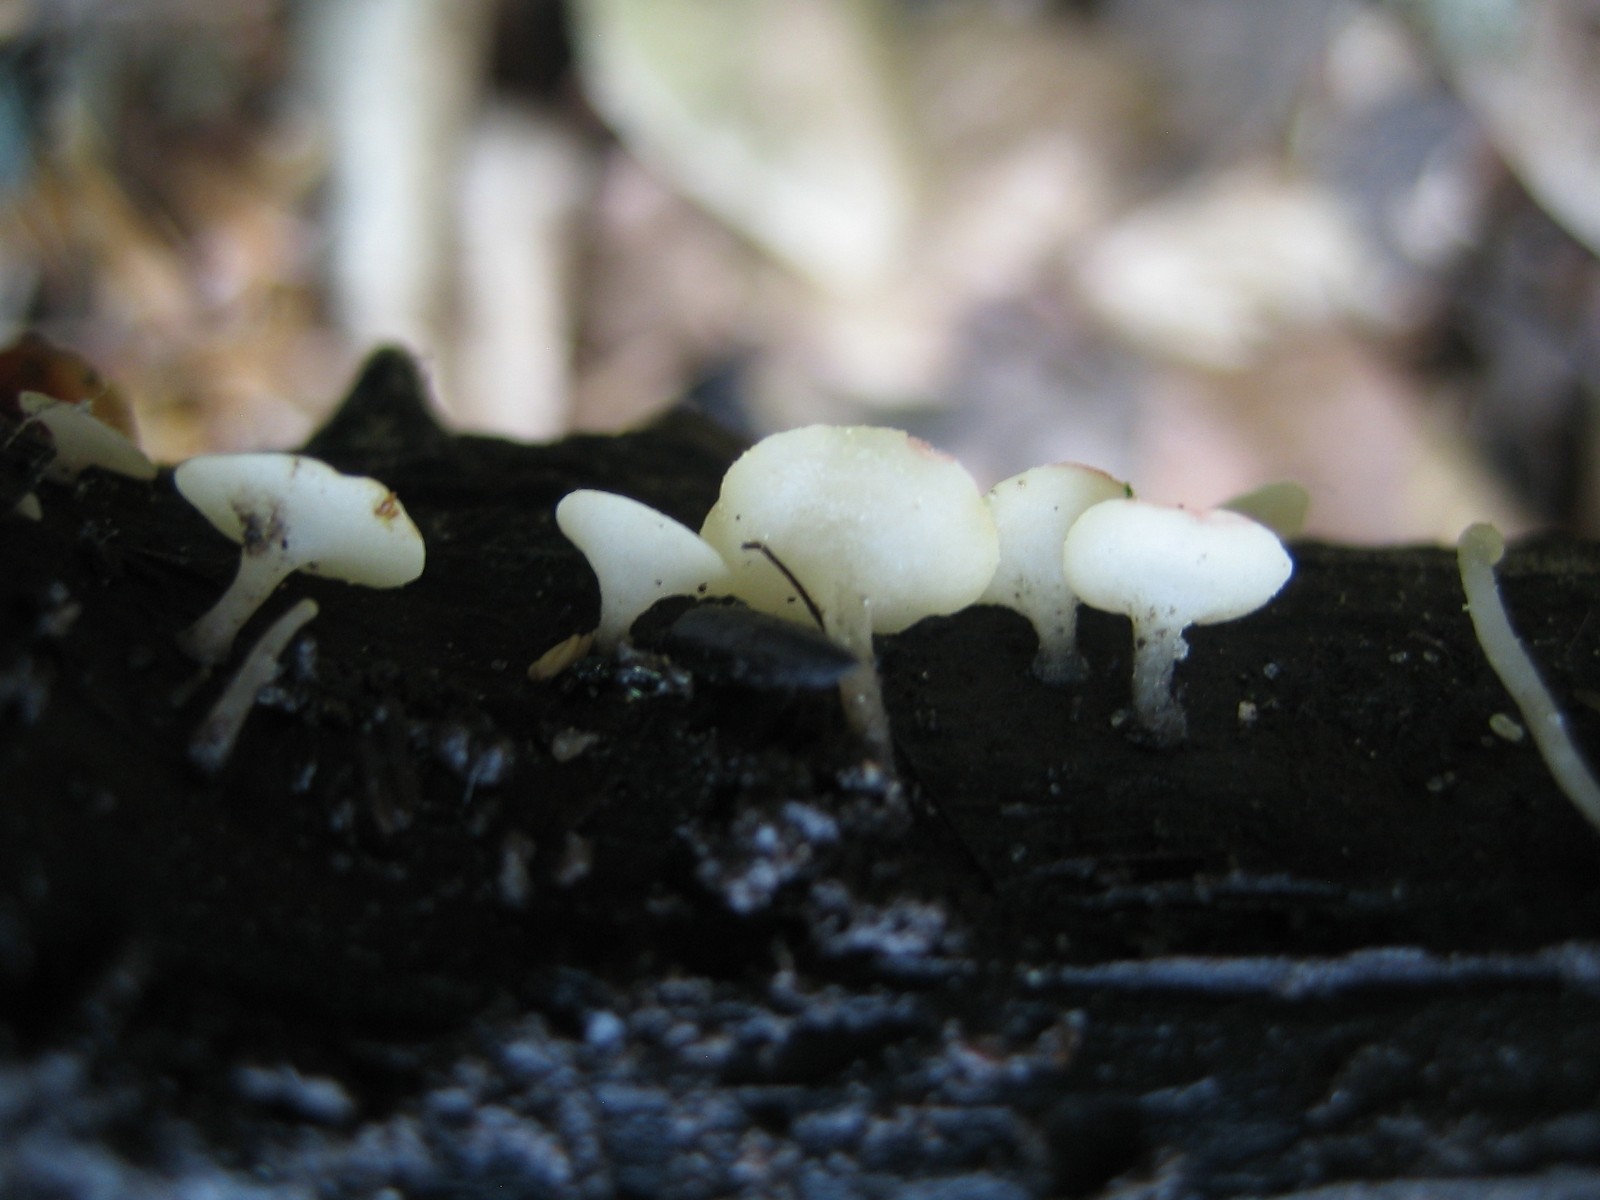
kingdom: Fungi
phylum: Ascomycota
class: Leotiomycetes
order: Helotiales
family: Helotiaceae
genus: Hymenoscyphus
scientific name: Hymenoscyphus
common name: stilkskive
